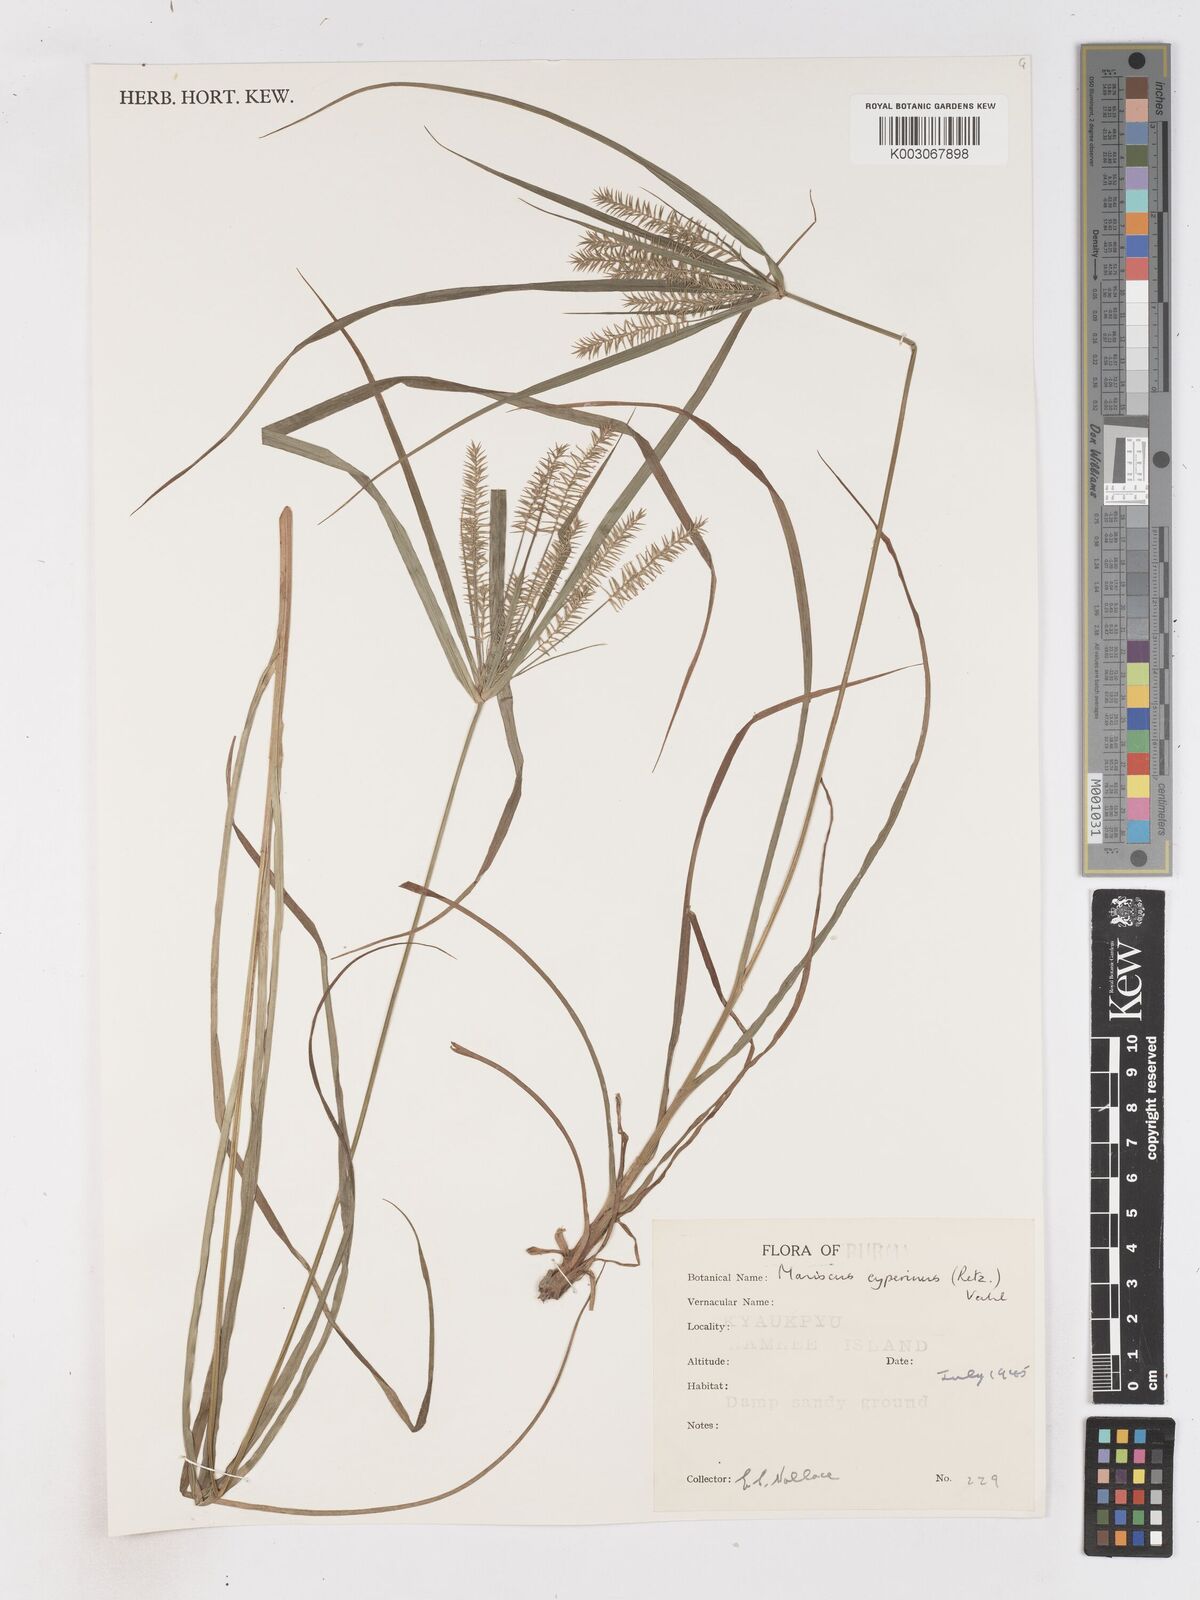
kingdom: Plantae
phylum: Tracheophyta
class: Liliopsida
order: Poales
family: Cyperaceae
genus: Cyperus
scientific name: Cyperus cyperinus
